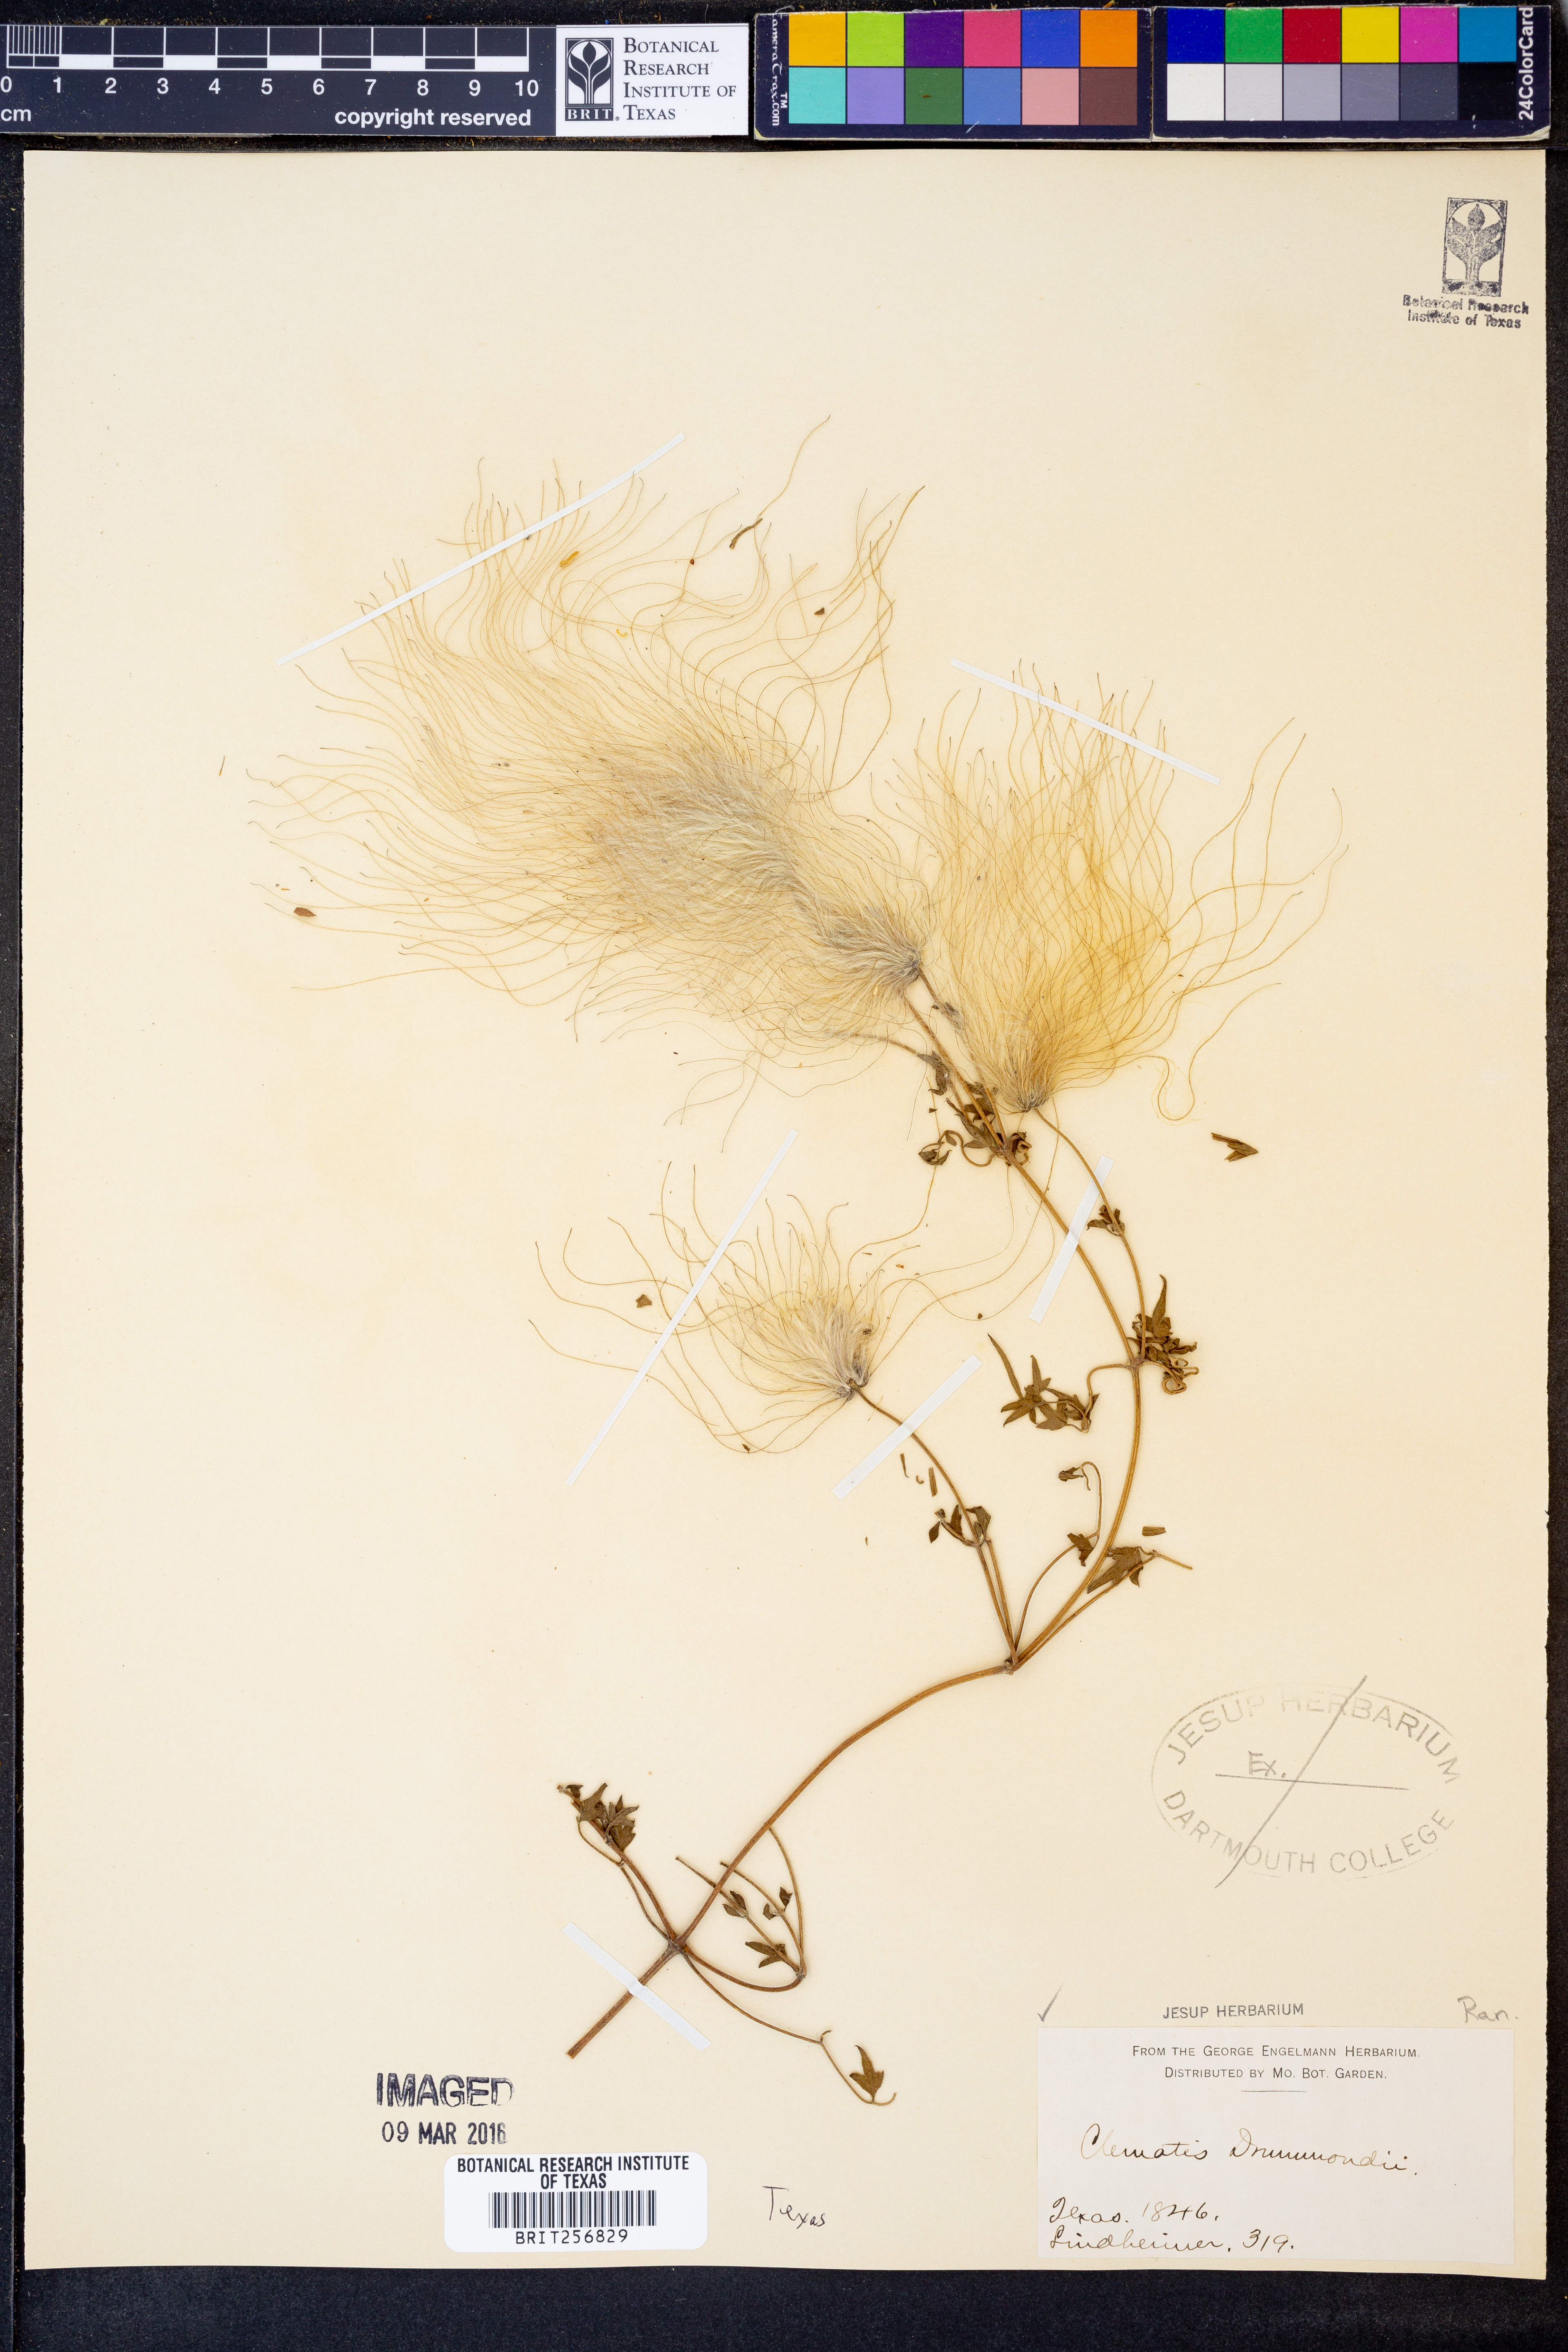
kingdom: Plantae
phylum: Tracheophyta
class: Magnoliopsida
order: Ranunculales
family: Ranunculaceae
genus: Clematis
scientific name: Clematis drummondii
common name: Texas virgin's bower
